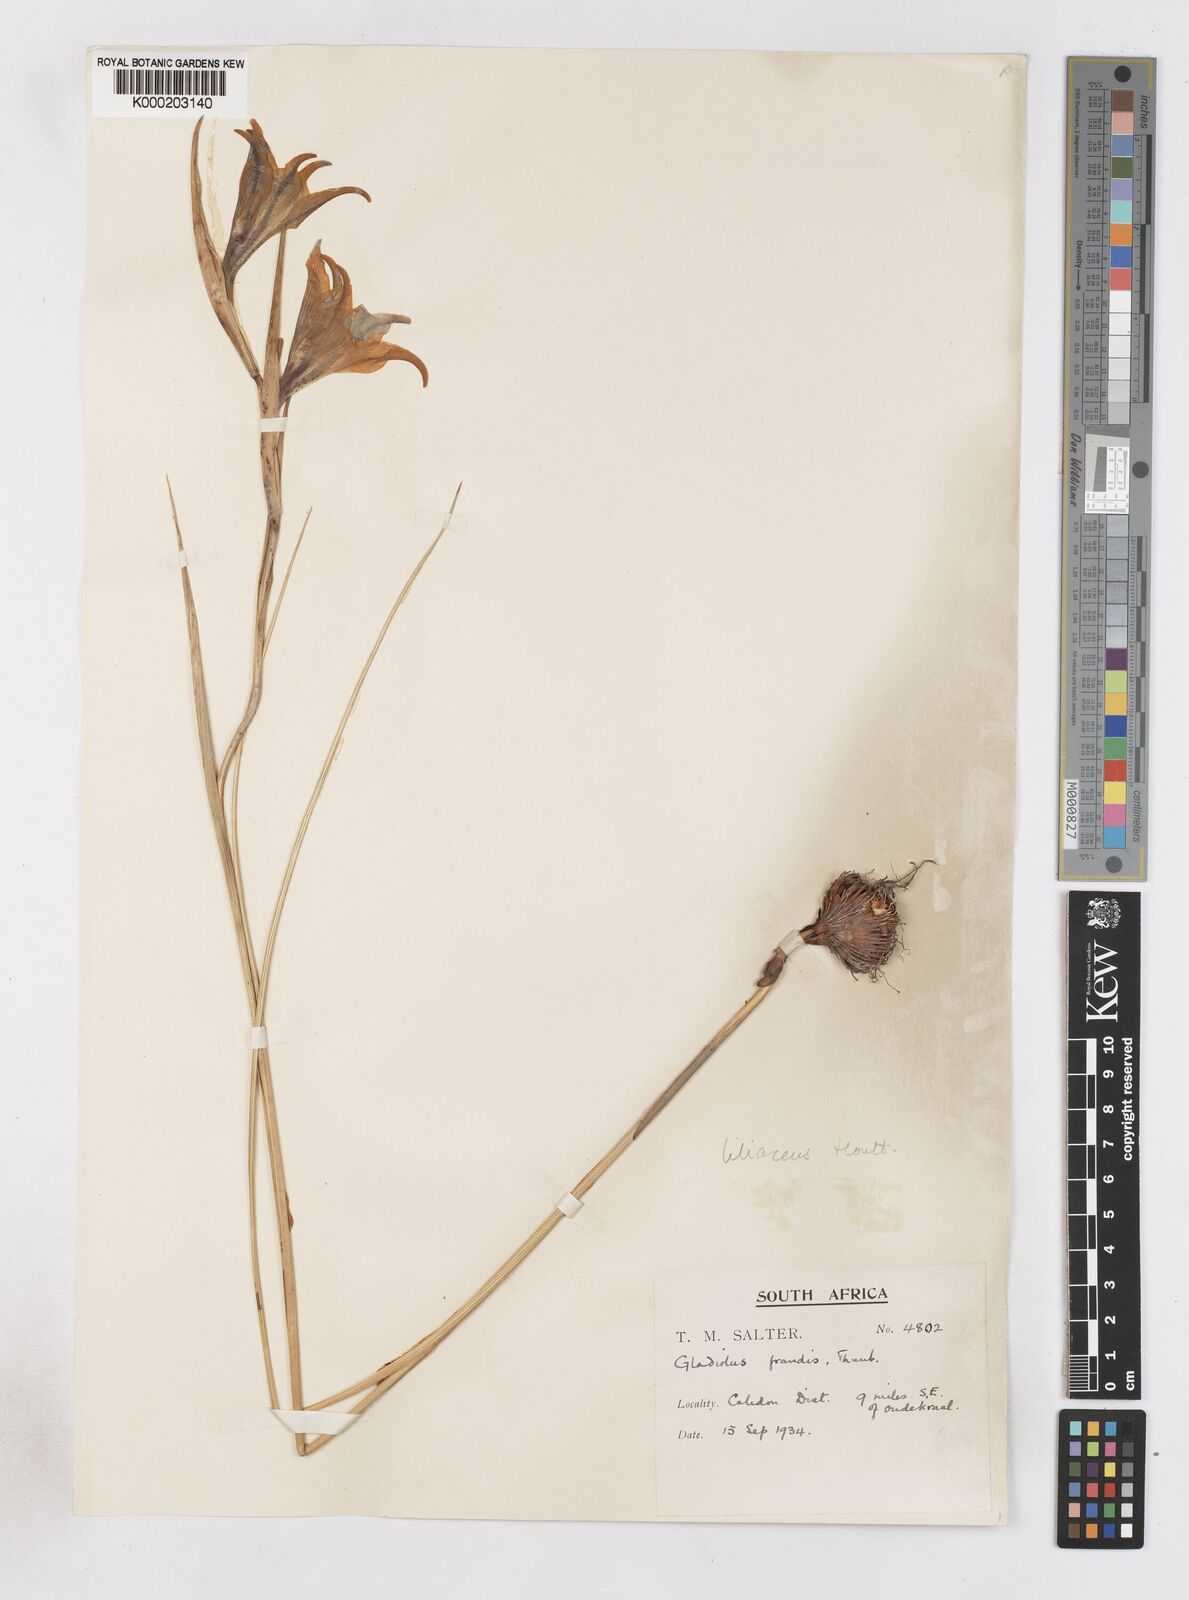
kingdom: Plantae
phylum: Tracheophyta
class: Liliopsida
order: Asparagales
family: Iridaceae
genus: Gladiolus
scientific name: Gladiolus liliaceus
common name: Large brown afrikaner
